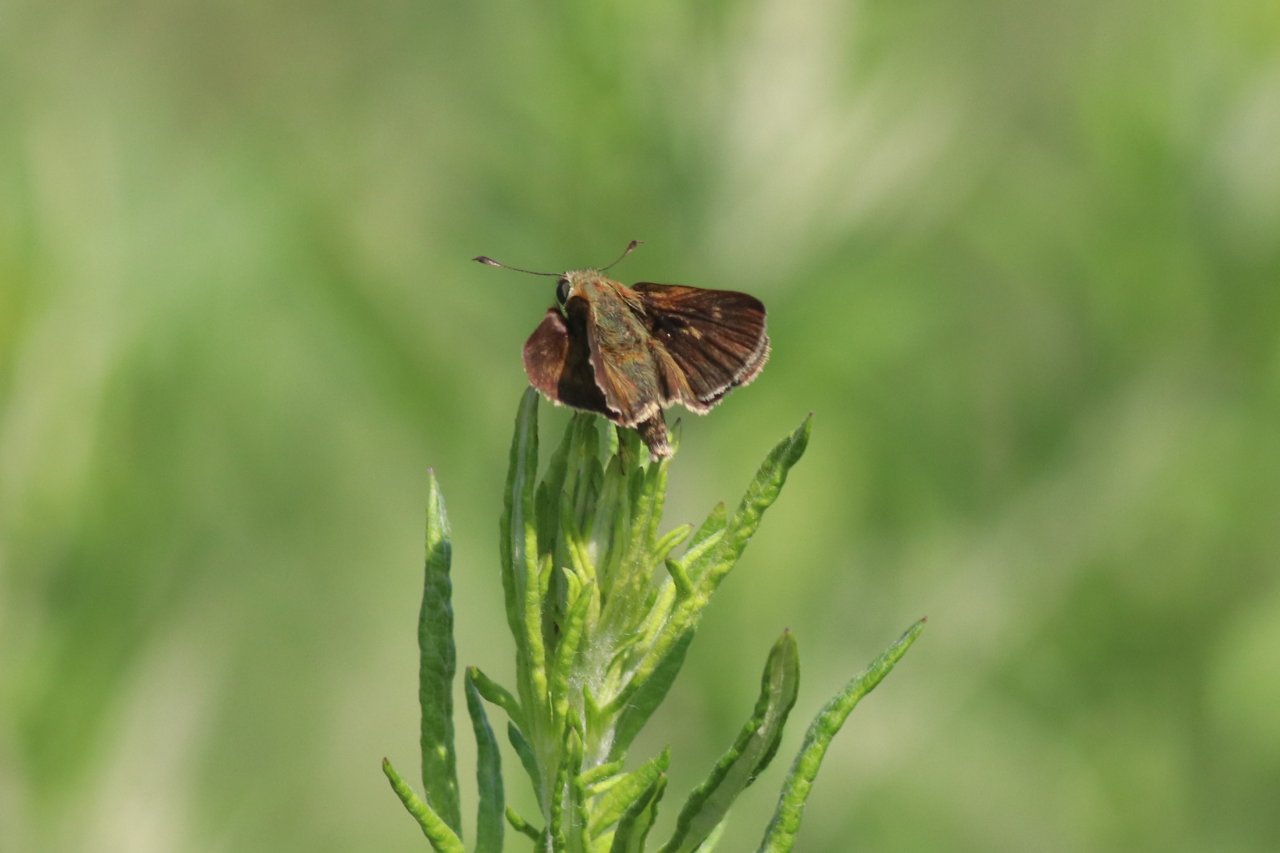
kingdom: Animalia
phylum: Arthropoda
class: Insecta
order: Lepidoptera
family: Hesperiidae
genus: Polites
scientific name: Polites egeremet
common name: Northern Broken-Dash
